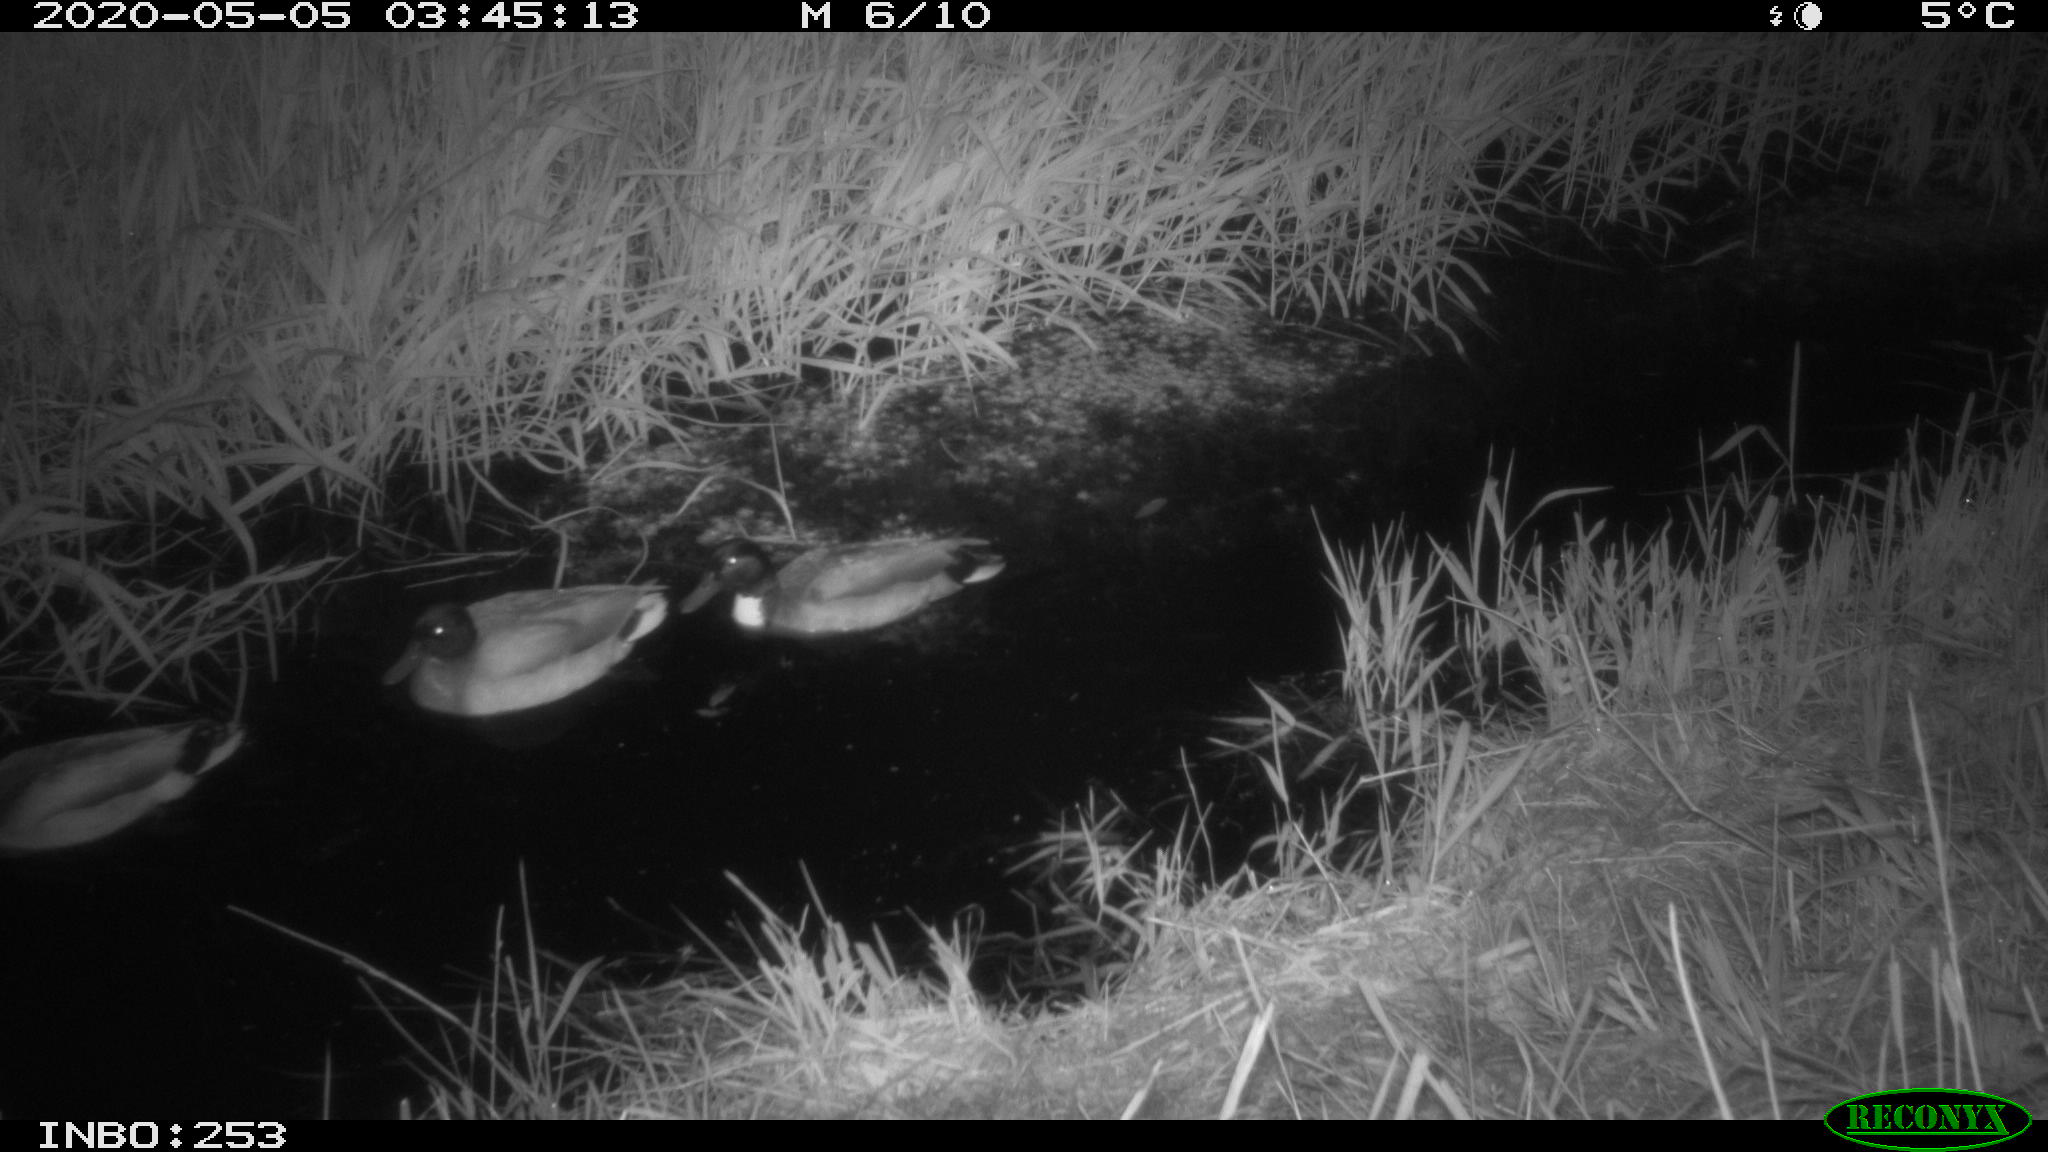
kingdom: Animalia
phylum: Chordata
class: Aves
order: Anseriformes
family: Anatidae
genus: Anas
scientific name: Anas platyrhynchos
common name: Mallard
